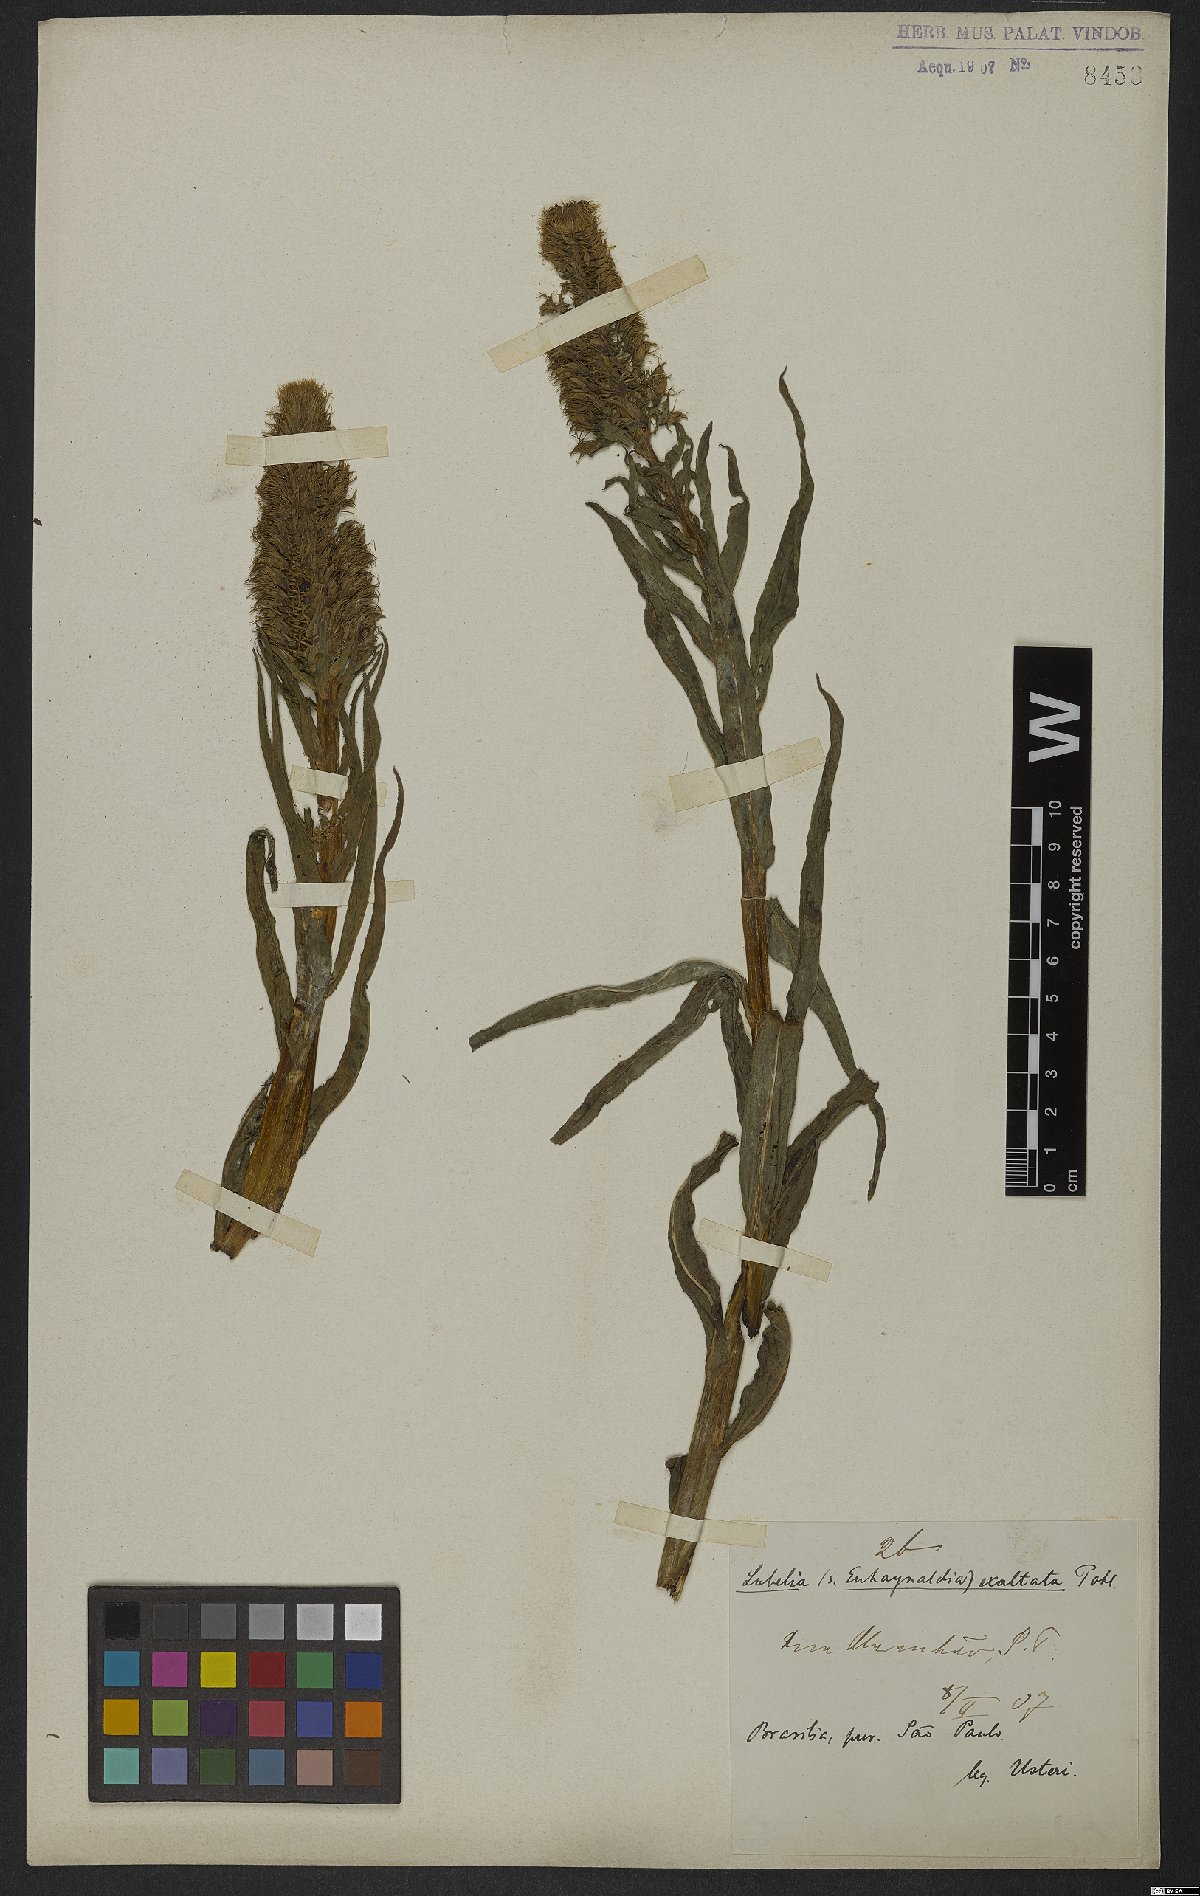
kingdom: Plantae
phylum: Tracheophyta
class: Magnoliopsida
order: Asterales
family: Campanulaceae
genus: Lobelia
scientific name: Lobelia exaltata
